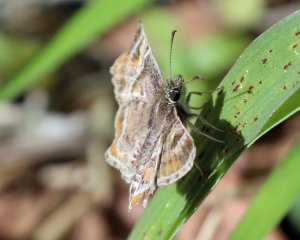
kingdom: Animalia
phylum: Arthropoda
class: Insecta
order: Lepidoptera
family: Hesperiidae
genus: Systasea
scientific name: Systasea pulverulenta
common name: Texas Powdered-Skipper
